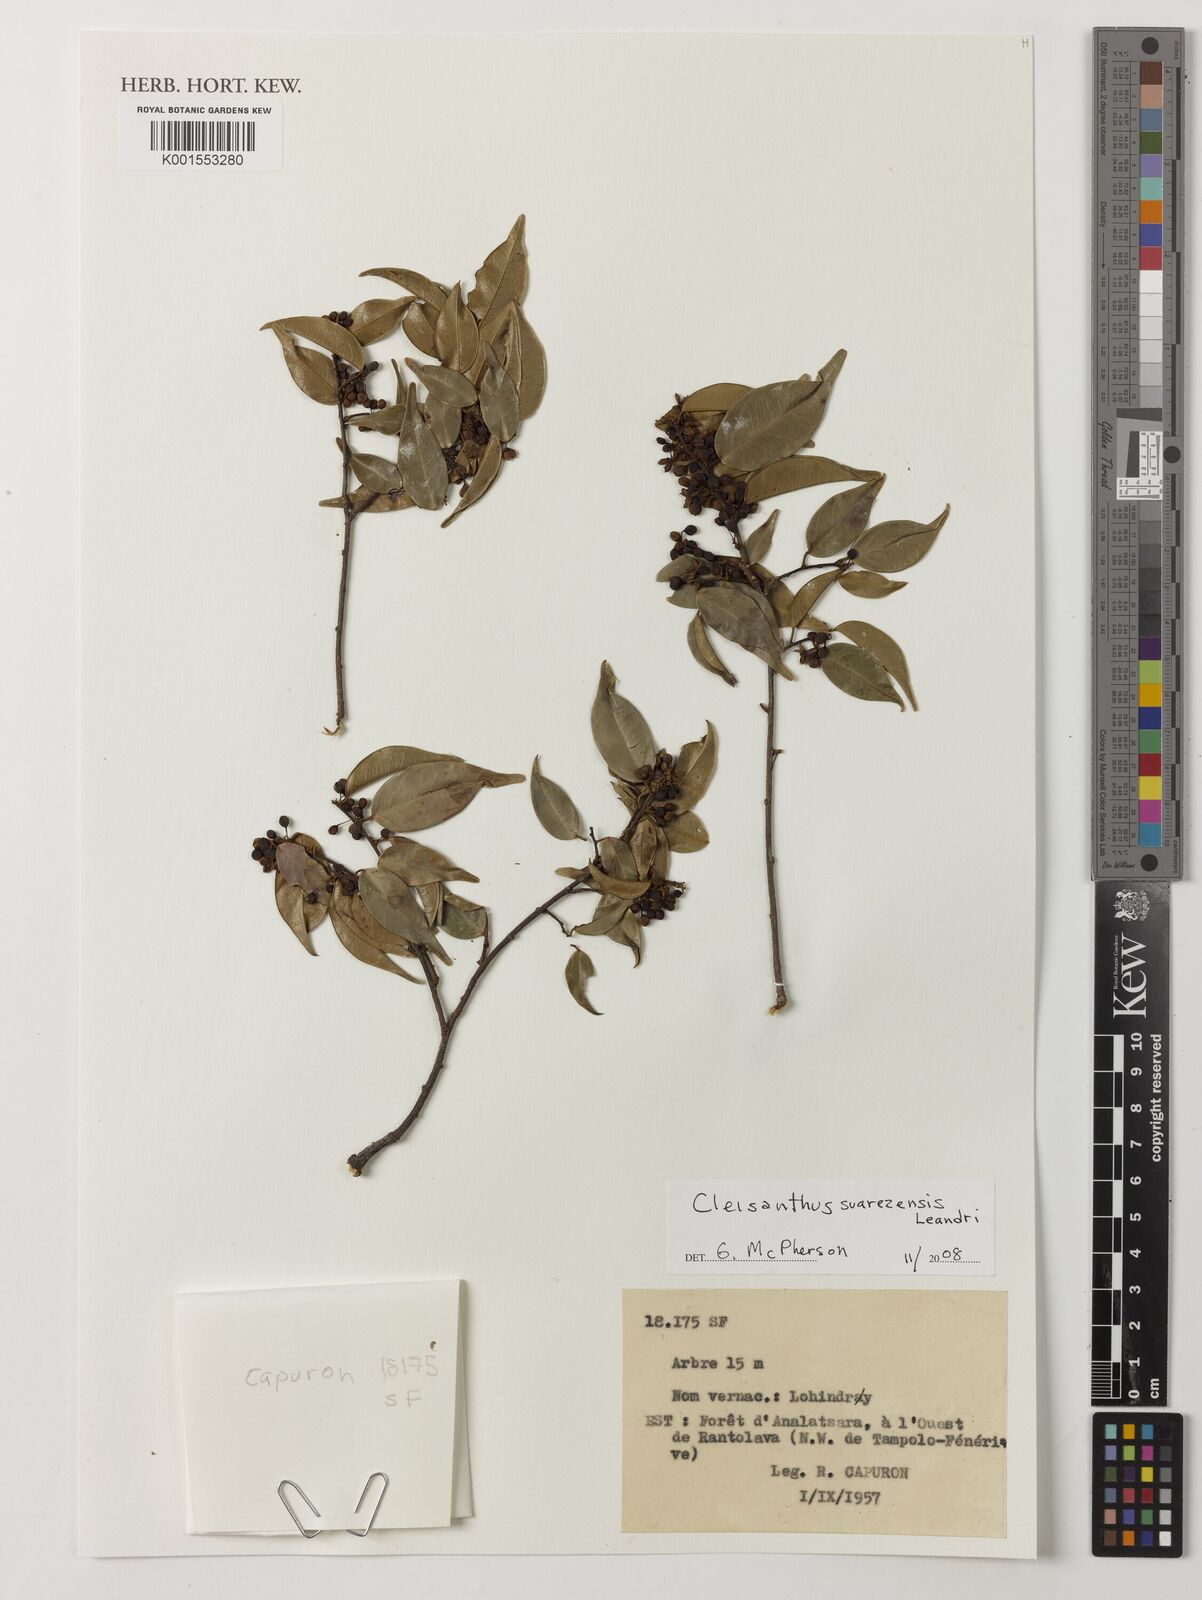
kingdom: Plantae
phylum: Tracheophyta
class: Magnoliopsida
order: Malpighiales
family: Phyllanthaceae
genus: Cleistanthus
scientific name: Cleistanthus suarezensis
